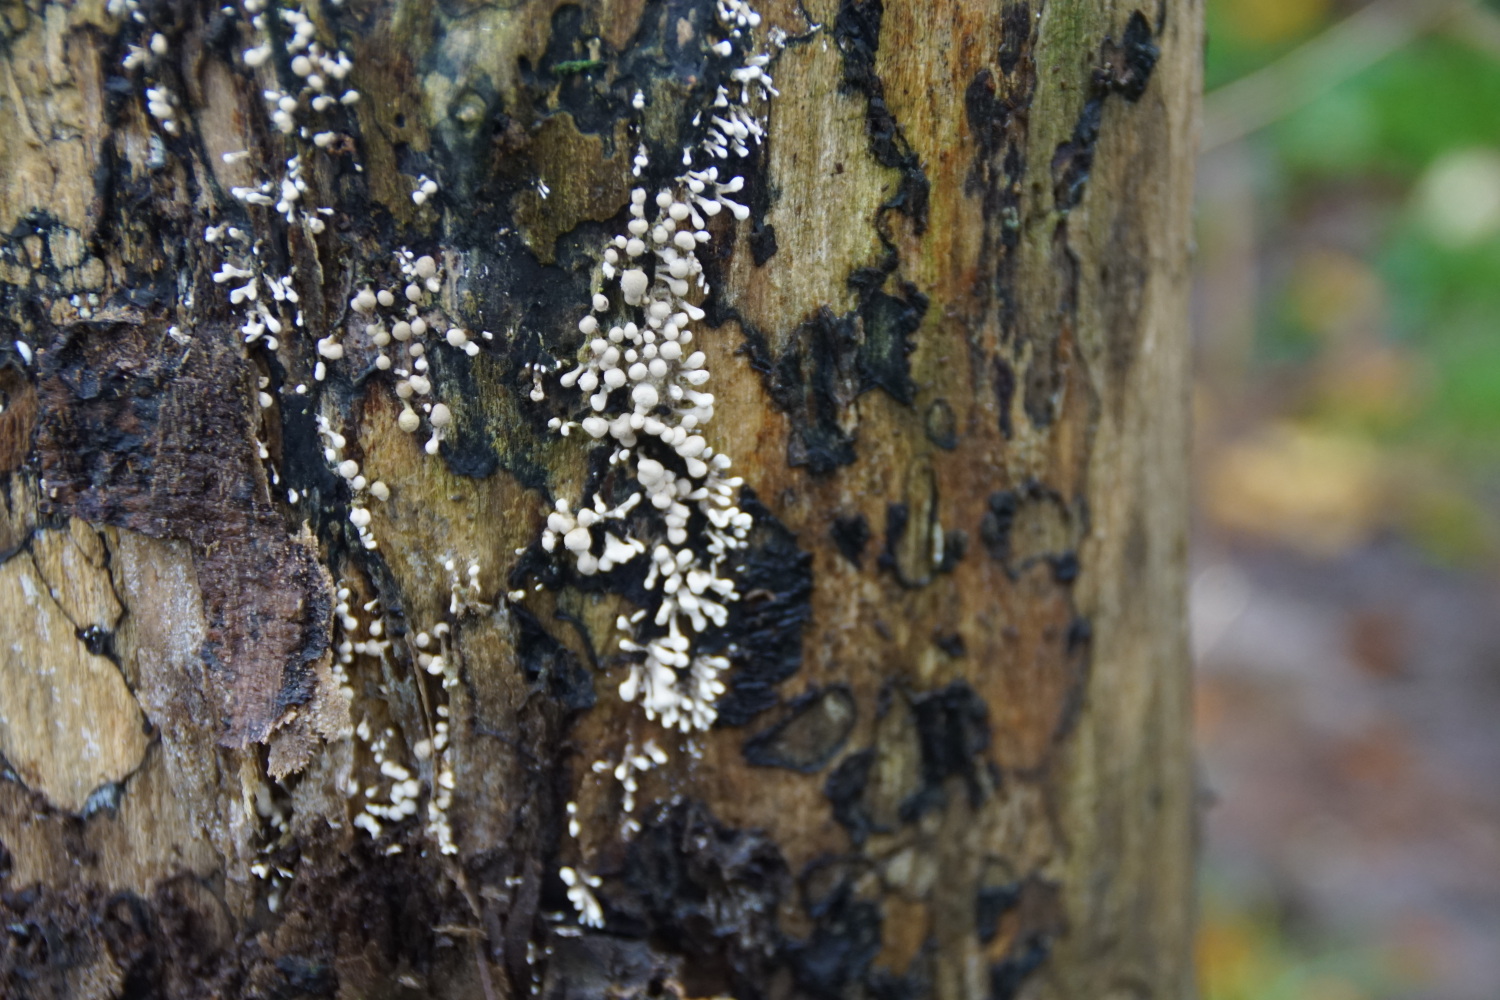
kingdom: Fungi
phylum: Basidiomycota
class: Atractiellomycetes
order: Atractiellales
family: Phleogenaceae
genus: Phleogena
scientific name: Phleogena faginea
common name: pudderkølle
